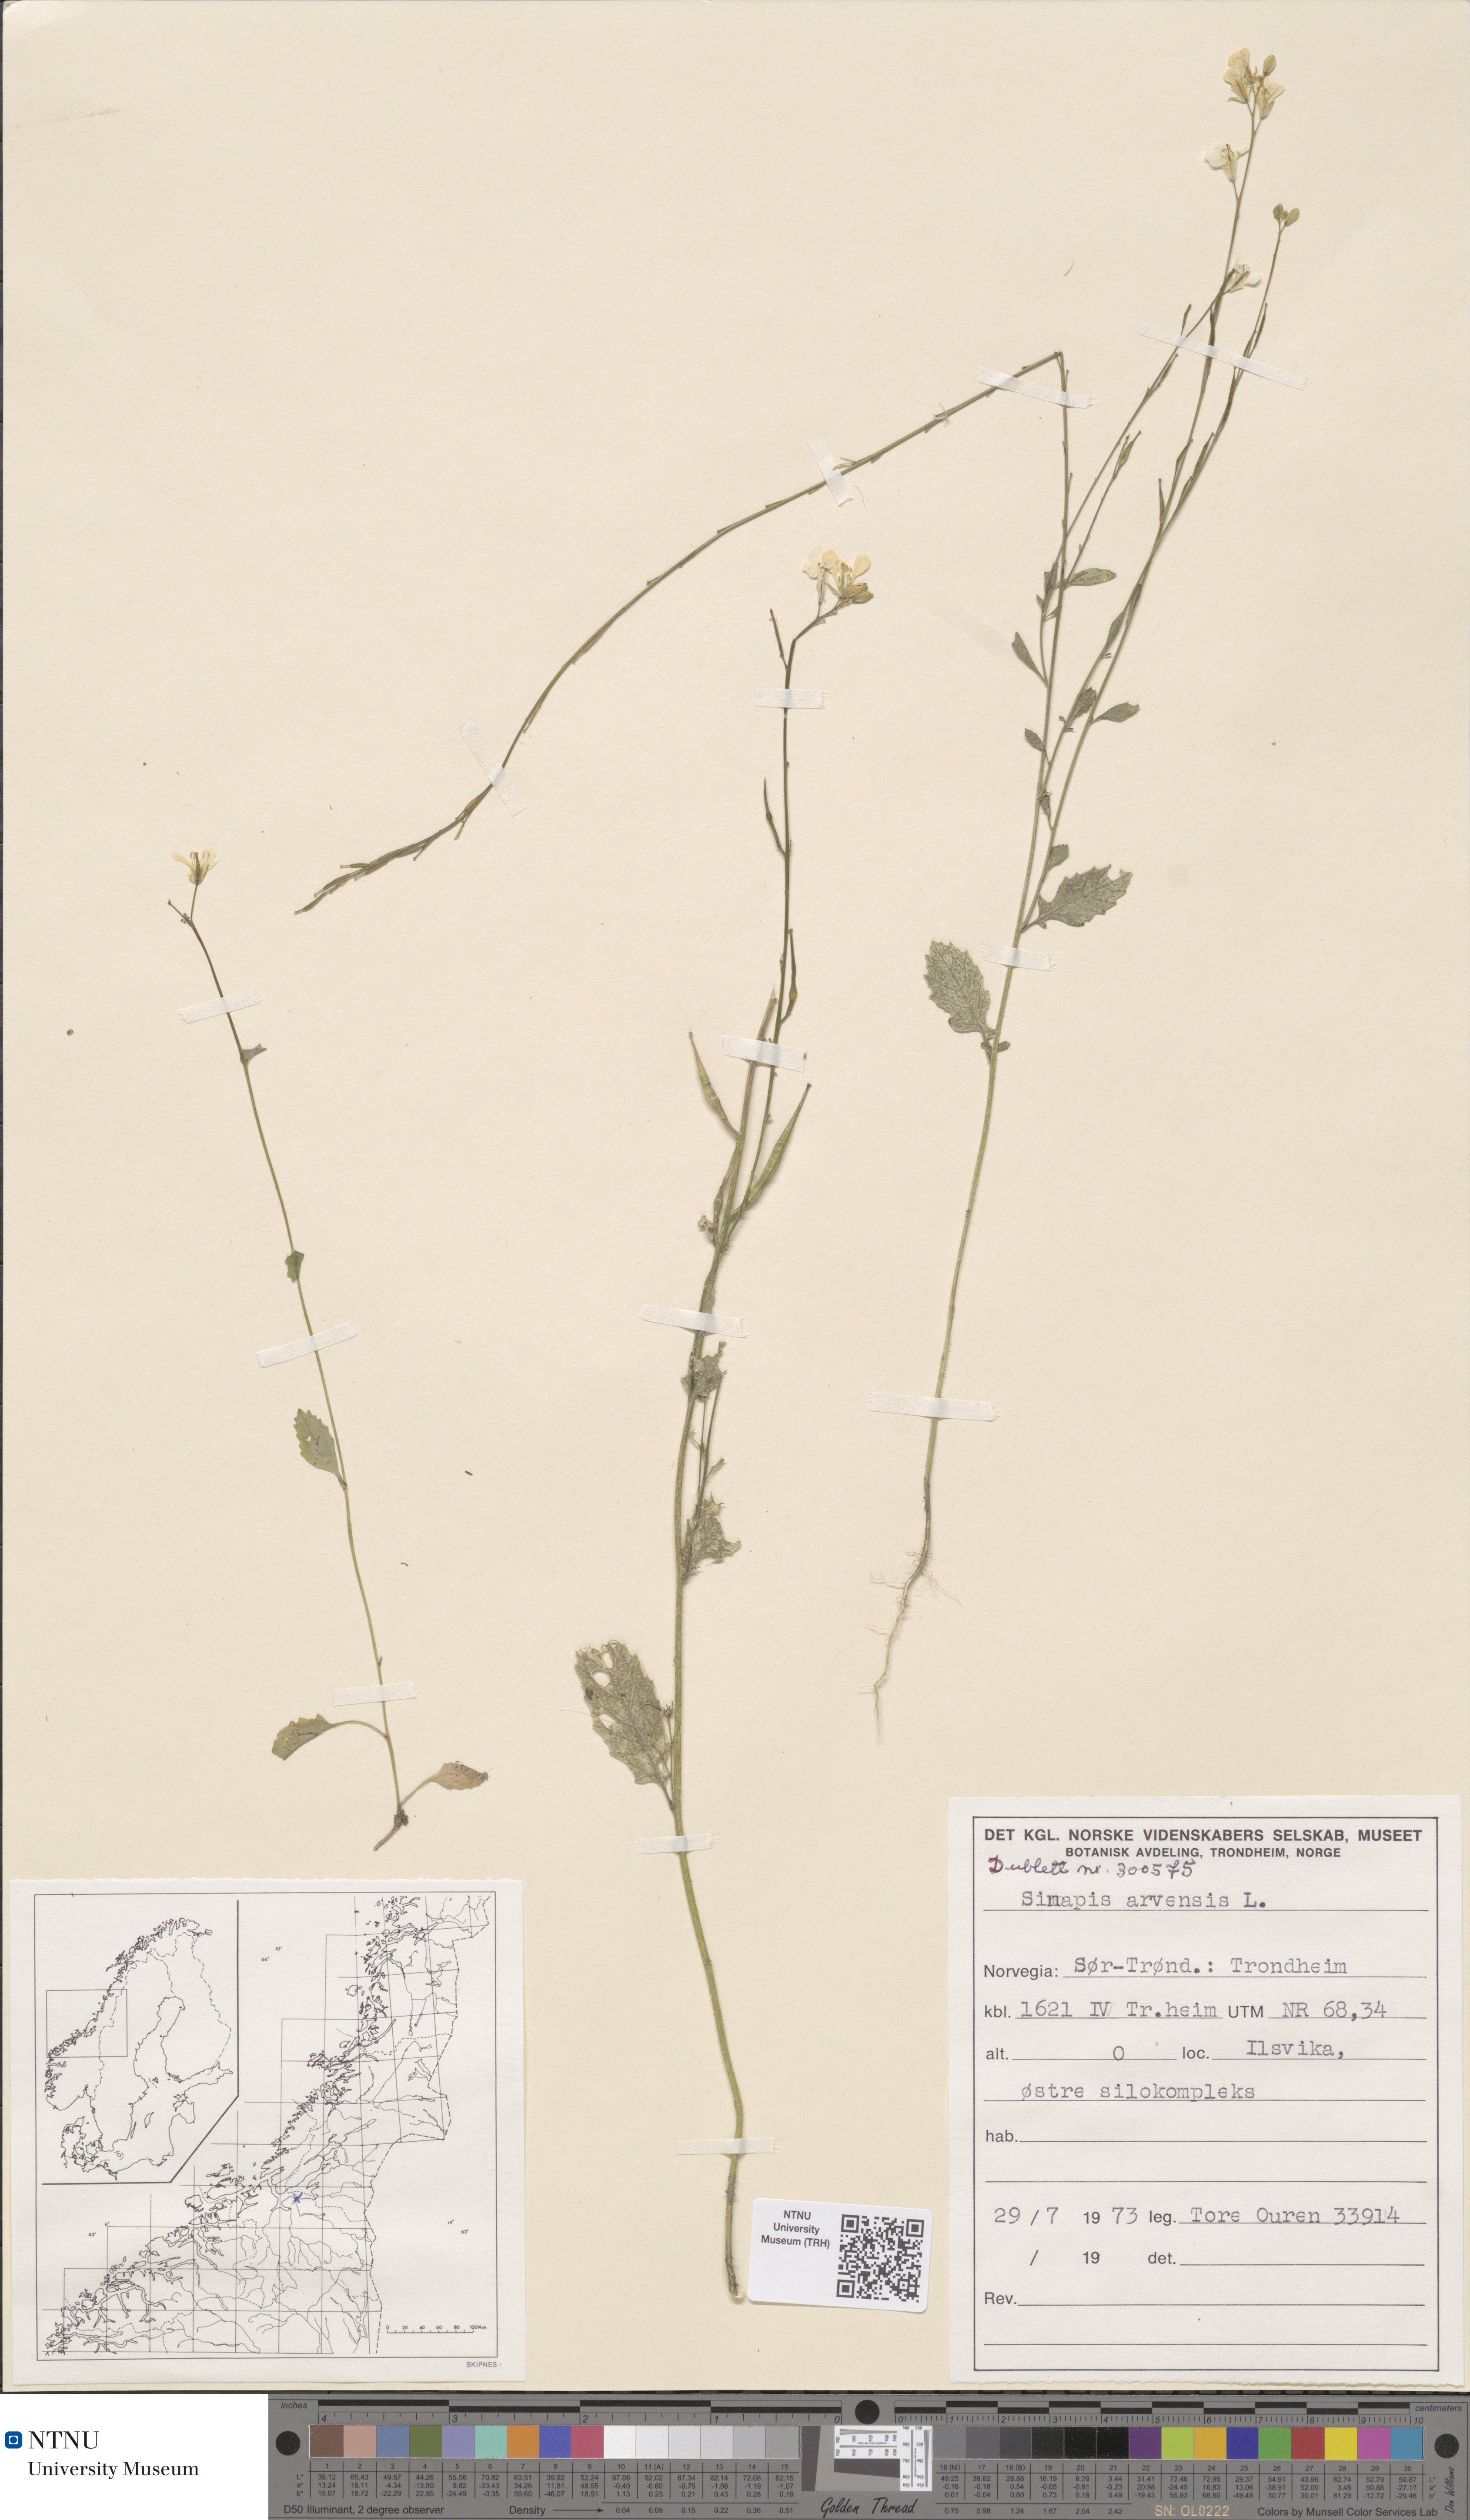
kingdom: Plantae
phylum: Tracheophyta
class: Magnoliopsida
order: Brassicales
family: Brassicaceae
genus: Sinapis
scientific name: Sinapis arvensis
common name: Charlock
